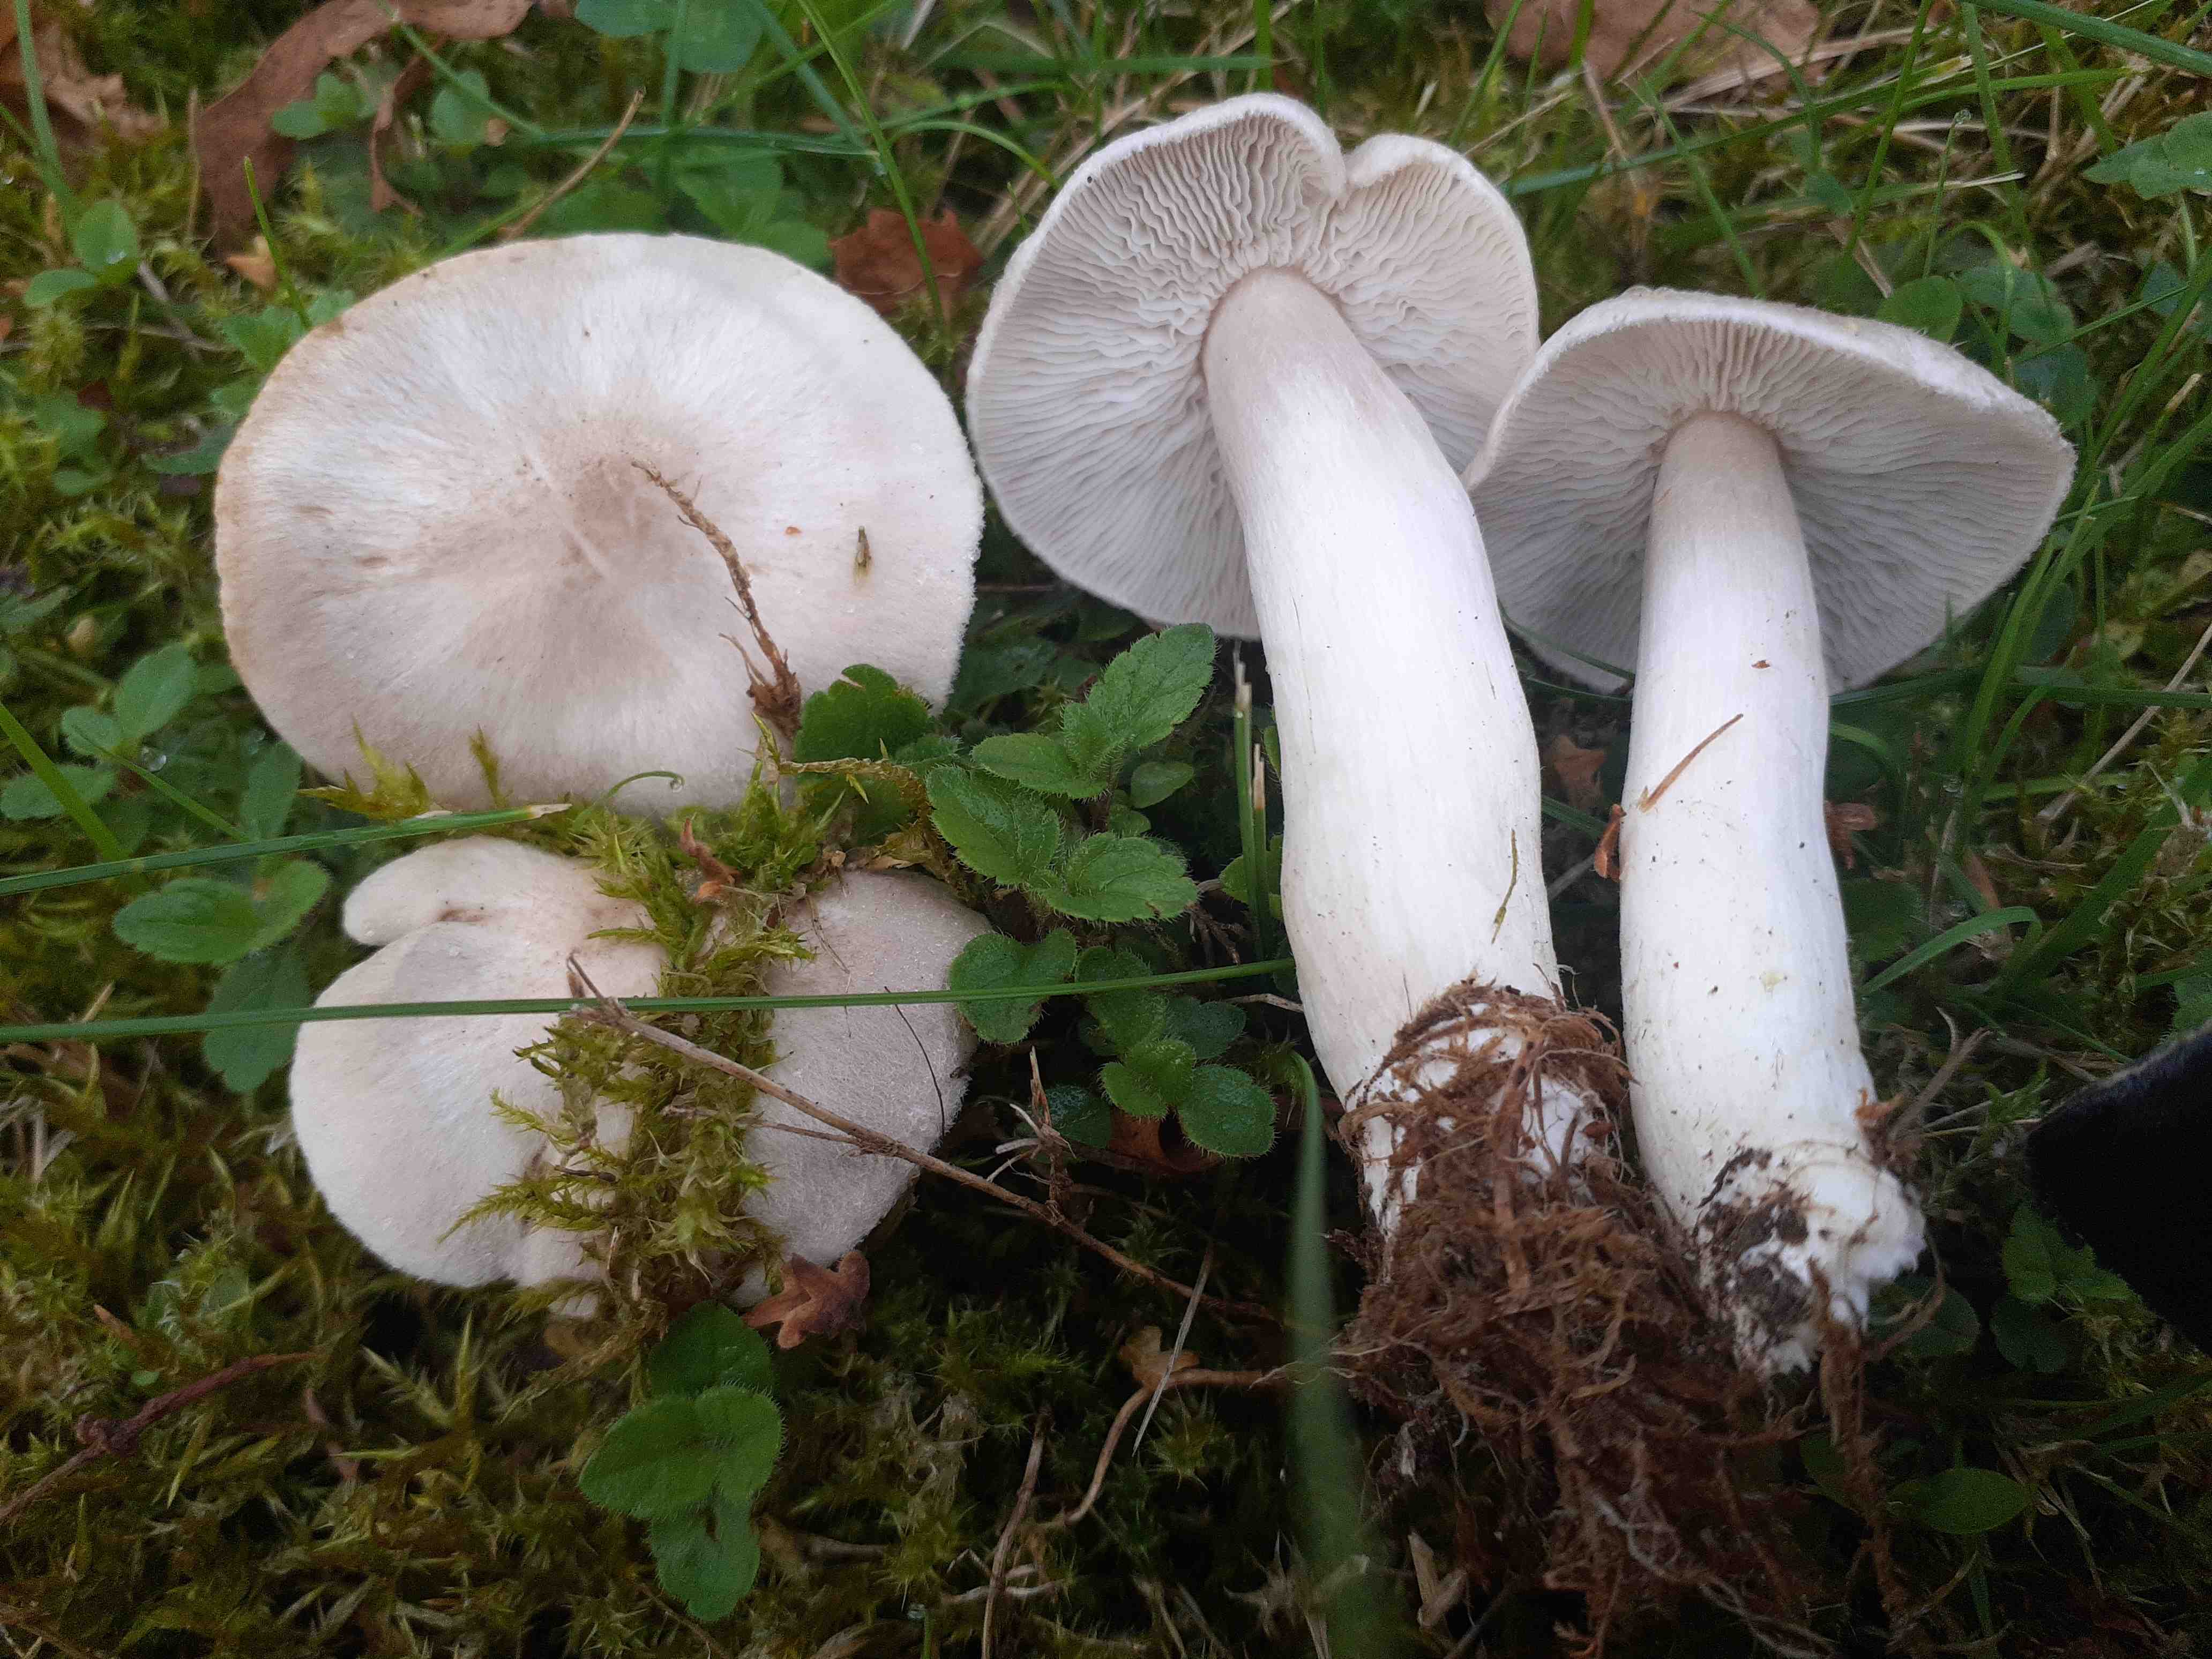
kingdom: Fungi
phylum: Basidiomycota
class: Agaricomycetes
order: Agaricales
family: Tricholomataceae
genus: Tricholoma
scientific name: Tricholoma argyraceum
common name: spids ridderhat
